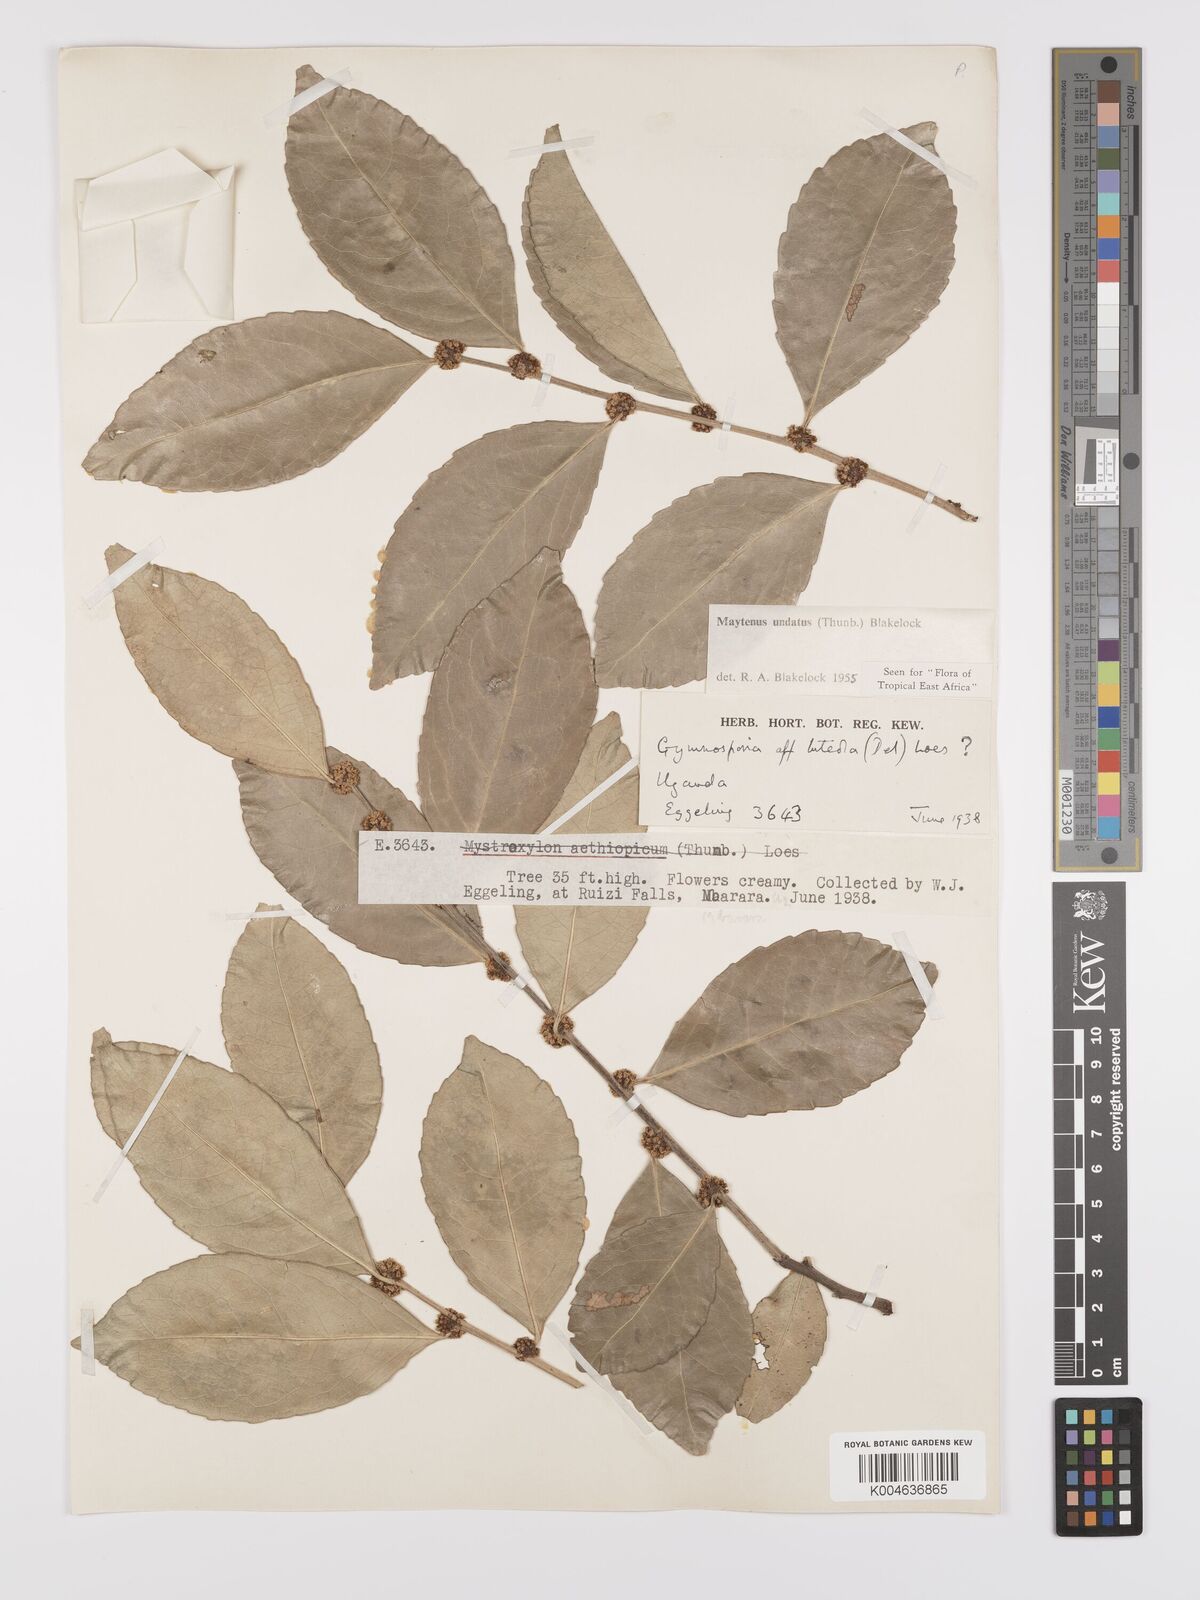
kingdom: Plantae
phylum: Tracheophyta
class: Magnoliopsida
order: Celastrales
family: Celastraceae
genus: Gymnosporia
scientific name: Gymnosporia undata
